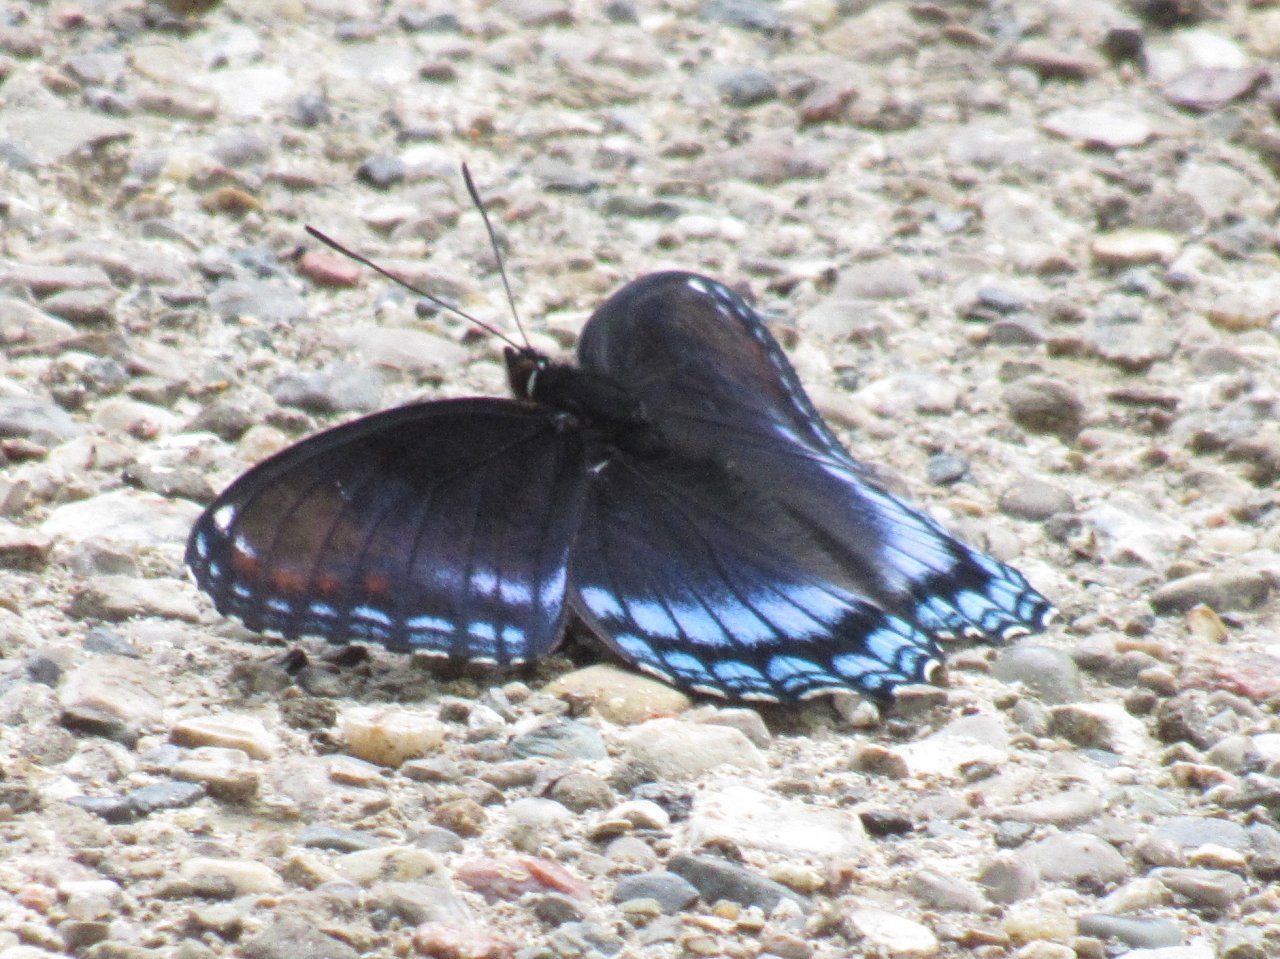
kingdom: Animalia
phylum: Arthropoda
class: Insecta
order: Lepidoptera
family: Nymphalidae
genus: Limenitis
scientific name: Limenitis astyanax
